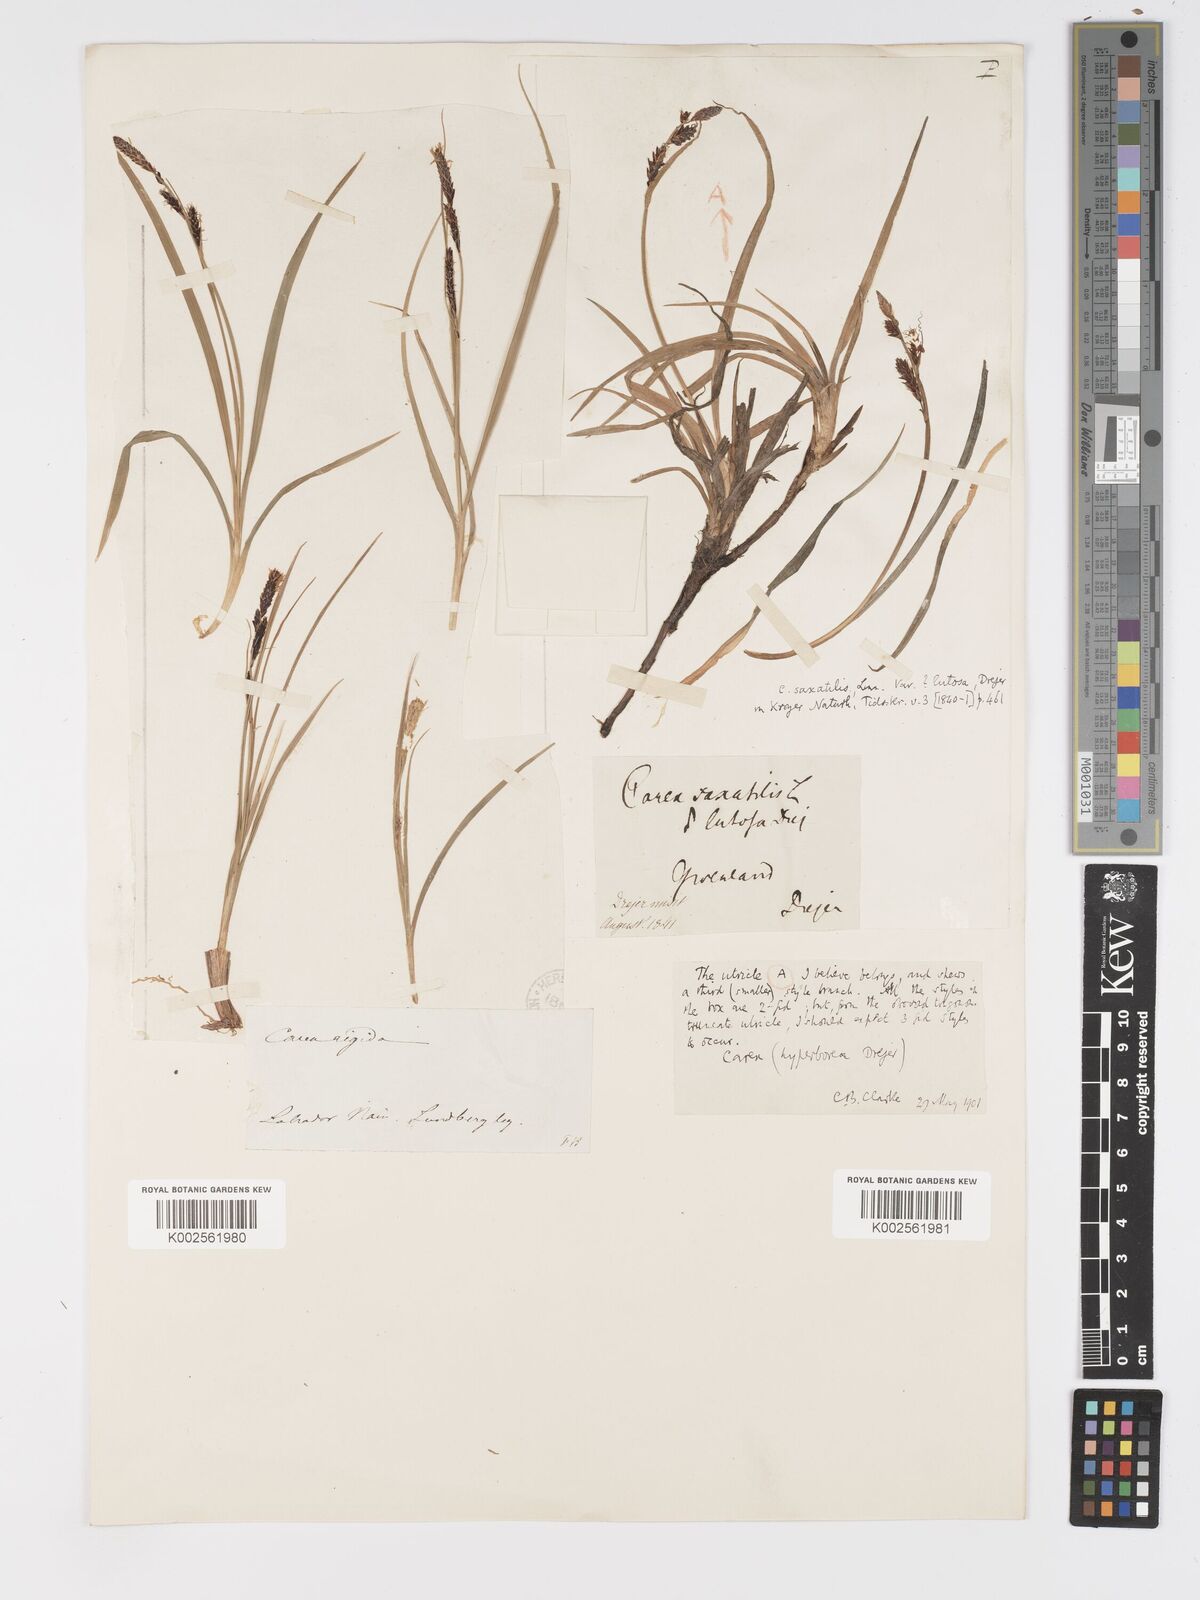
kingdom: Plantae
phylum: Tracheophyta
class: Liliopsida
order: Poales
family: Cyperaceae
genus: Carex
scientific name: Carex bigelowii
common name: Stiff sedge
